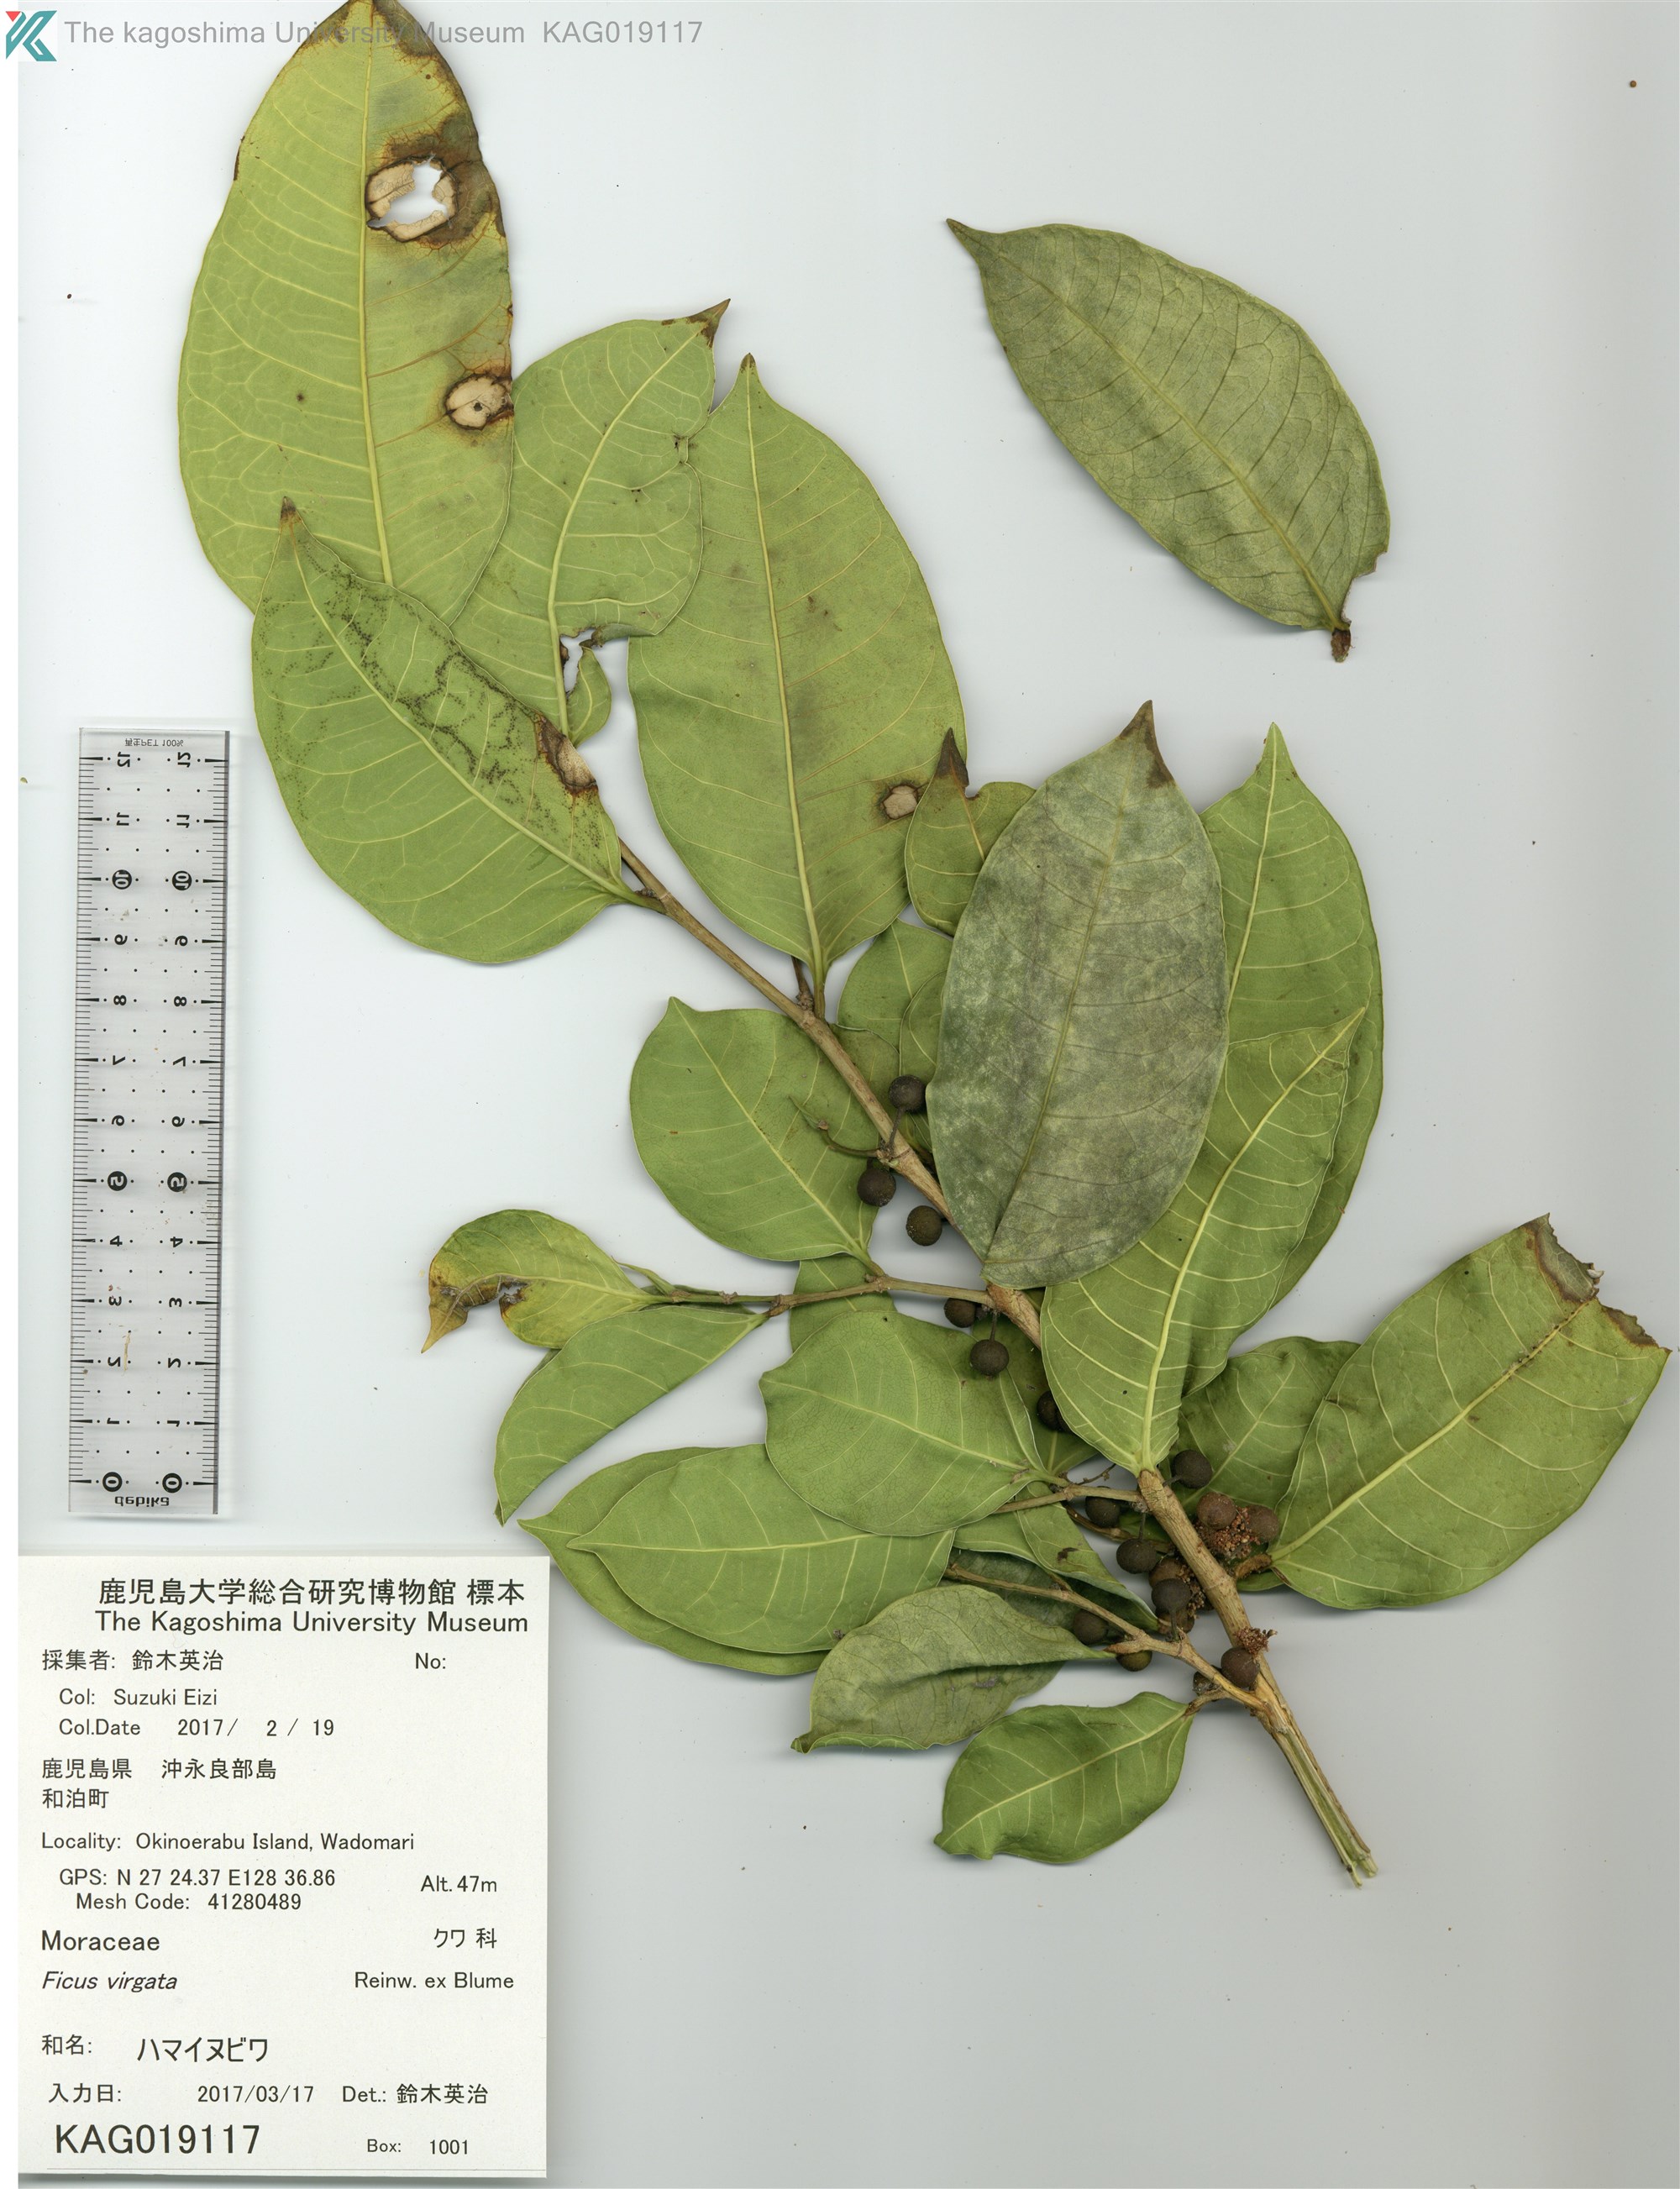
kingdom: Plantae
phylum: Tracheophyta
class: Magnoliopsida
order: Rosales
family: Moraceae
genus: Ficus
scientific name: Ficus virgata
